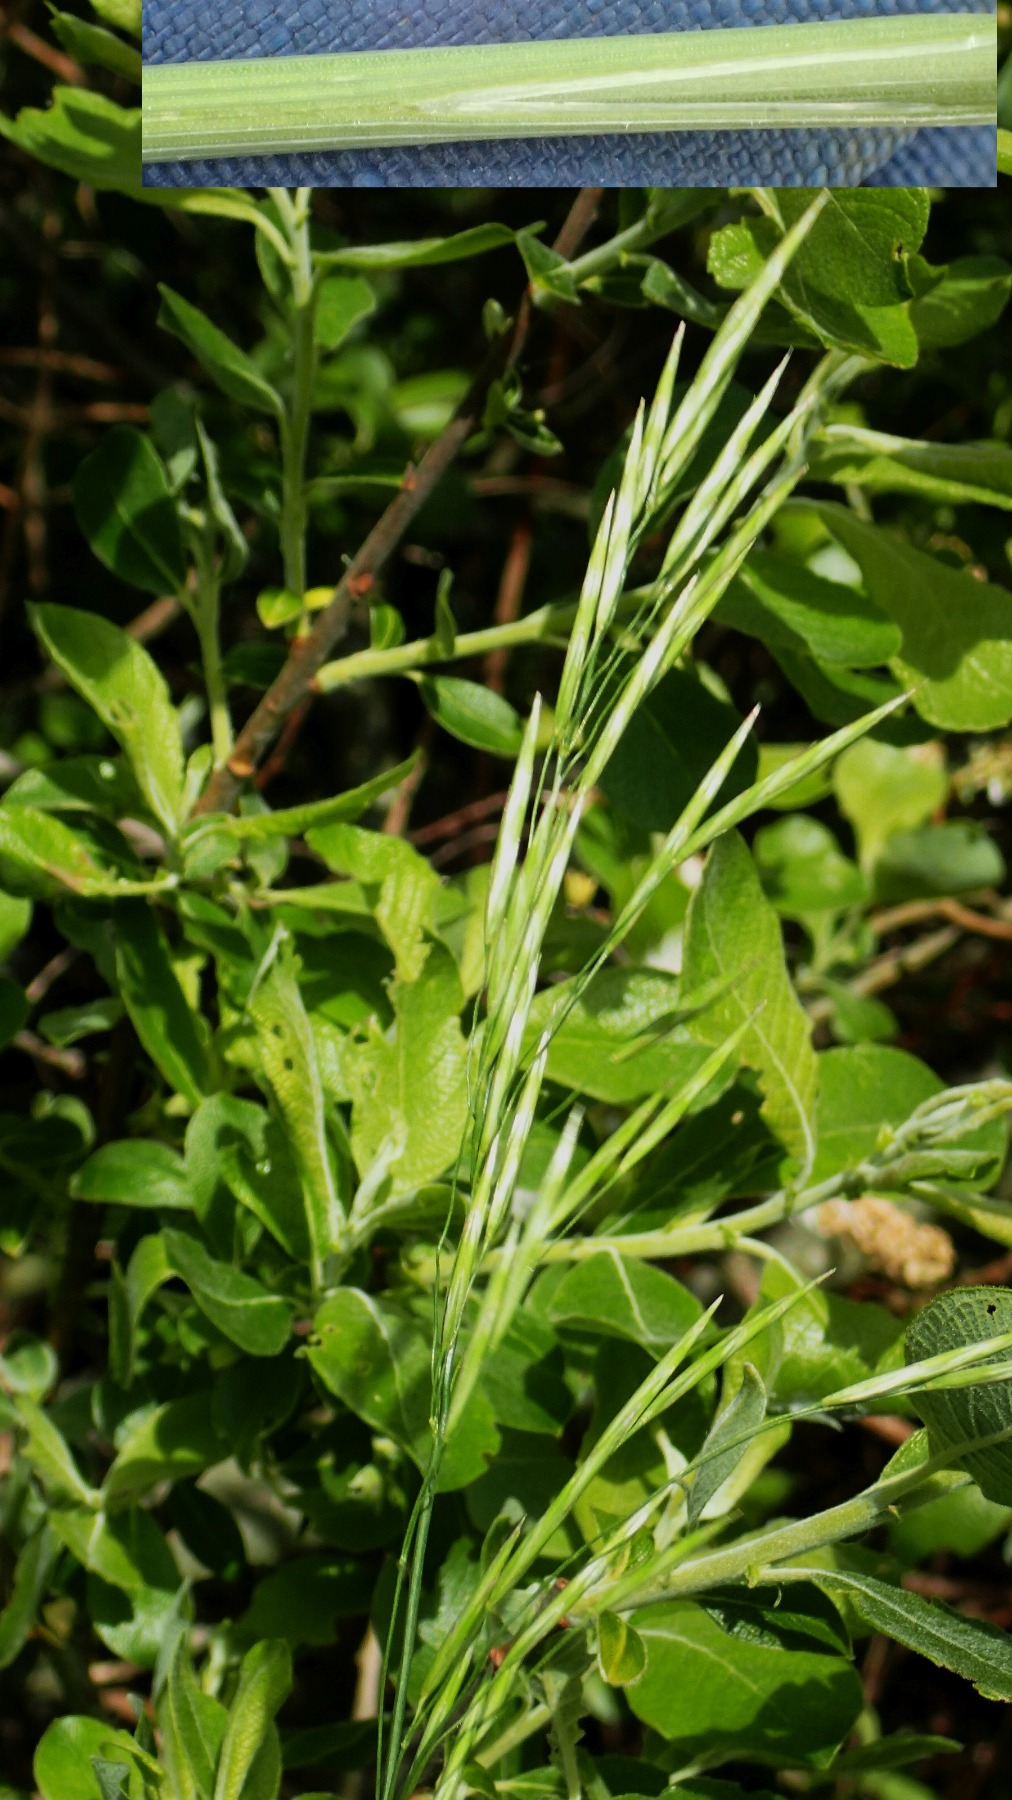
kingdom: Plantae
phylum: Tracheophyta
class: Liliopsida
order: Poales
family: Poaceae
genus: Bromus
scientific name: Bromus inermis
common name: Stakløs hejre
